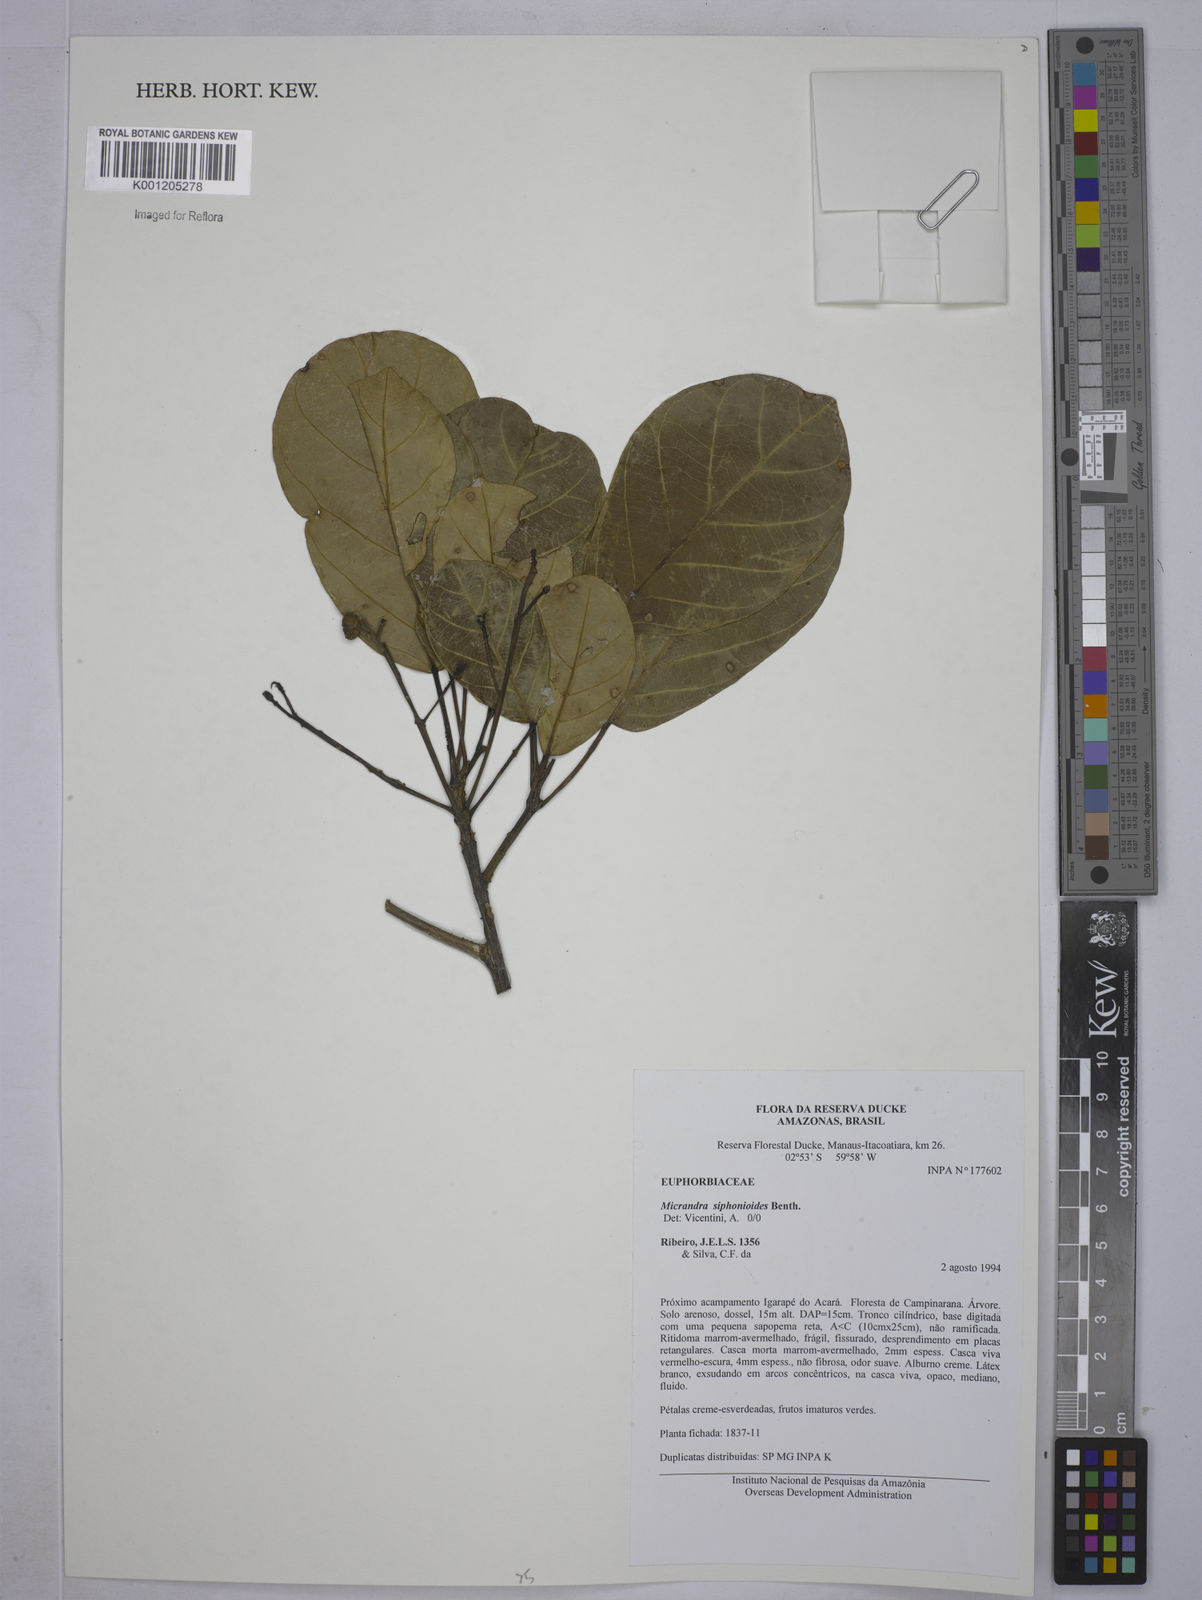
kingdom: Plantae
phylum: Tracheophyta
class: Magnoliopsida
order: Malpighiales
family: Euphorbiaceae
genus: Micrandra
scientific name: Micrandra siphonioides
